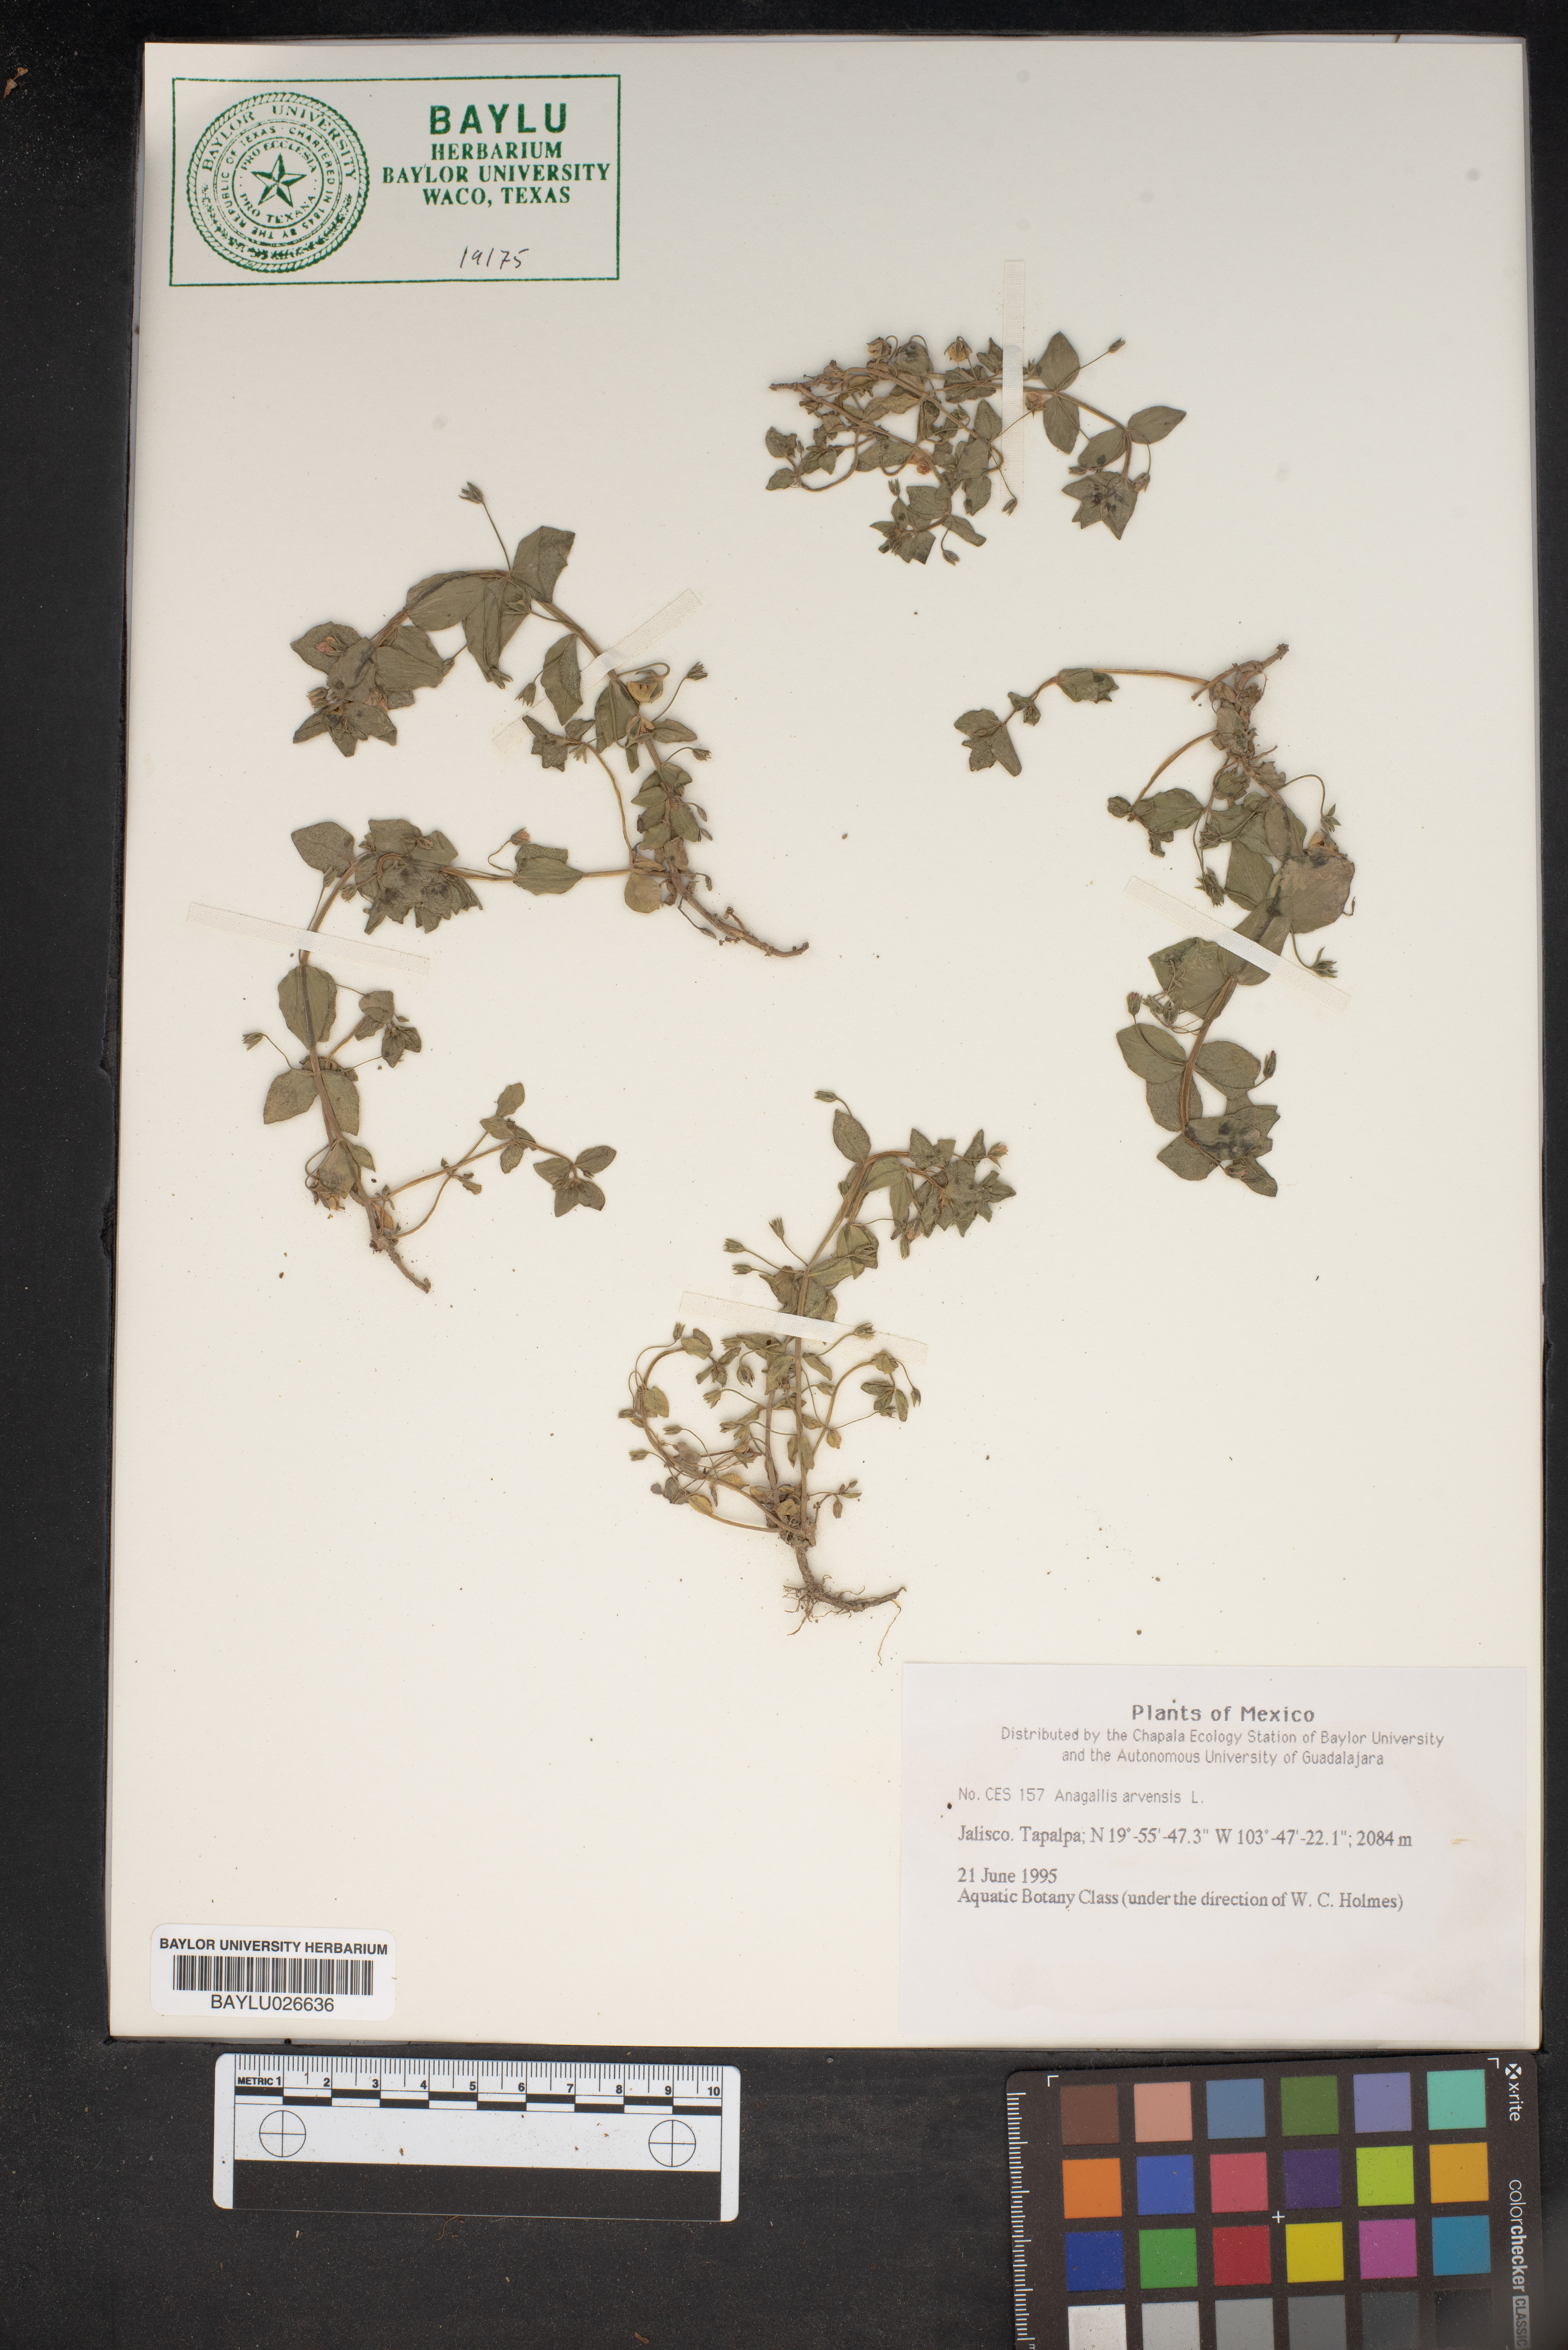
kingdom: Plantae
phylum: Tracheophyta
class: Magnoliopsida
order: Ericales
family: Primulaceae
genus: Lysimachia
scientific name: Lysimachia arvensis
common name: Scarlet pimpernel
